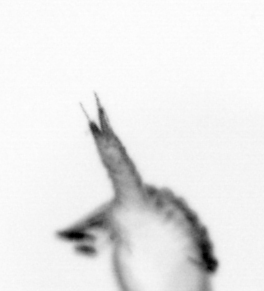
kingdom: Animalia
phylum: Annelida
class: Polychaeta
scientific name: Polychaeta
